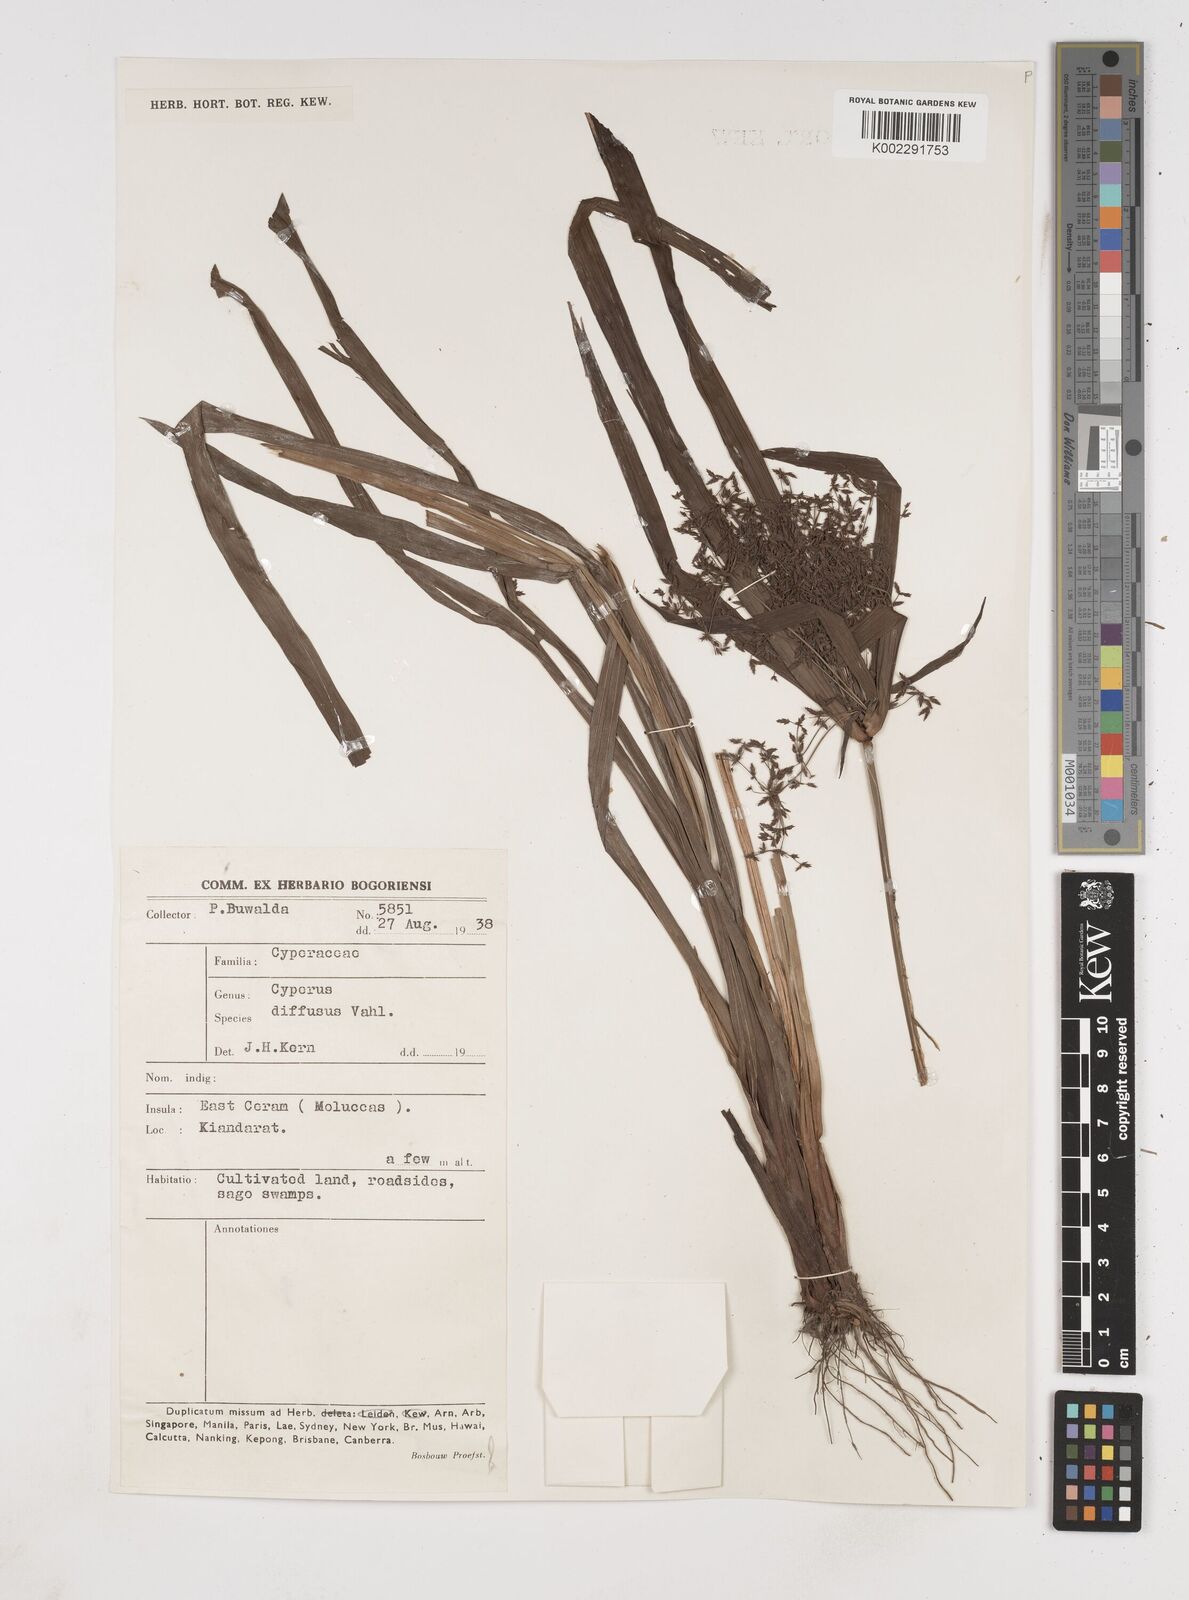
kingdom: Plantae
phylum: Tracheophyta
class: Liliopsida
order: Poales
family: Cyperaceae
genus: Cyperus
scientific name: Cyperus diffusus
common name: Dwarf umbrella grass
